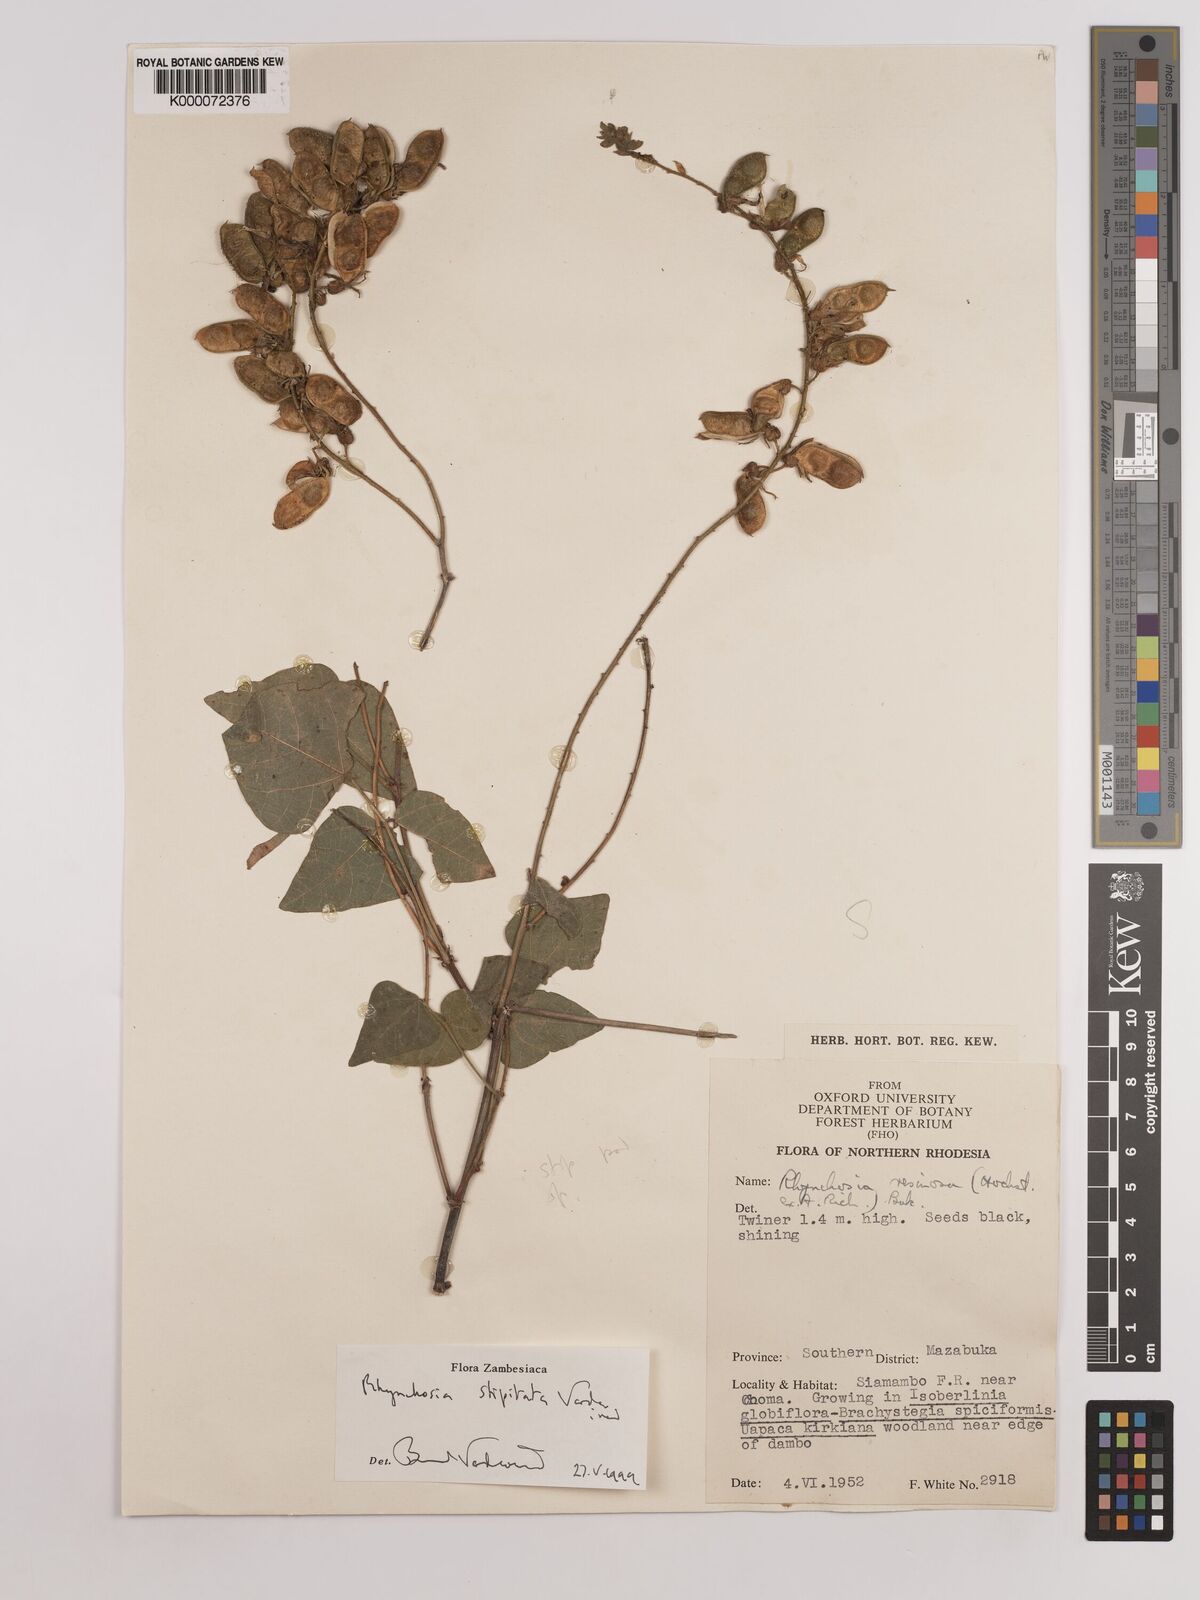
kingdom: Plantae
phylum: Tracheophyta
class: Magnoliopsida
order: Fabales
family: Fabaceae
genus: Rhynchosia
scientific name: Rhynchosia stipitata
